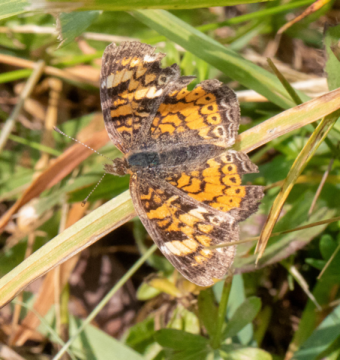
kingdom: Animalia
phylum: Arthropoda
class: Insecta
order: Lepidoptera
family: Nymphalidae
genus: Phyciodes
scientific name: Phyciodes
